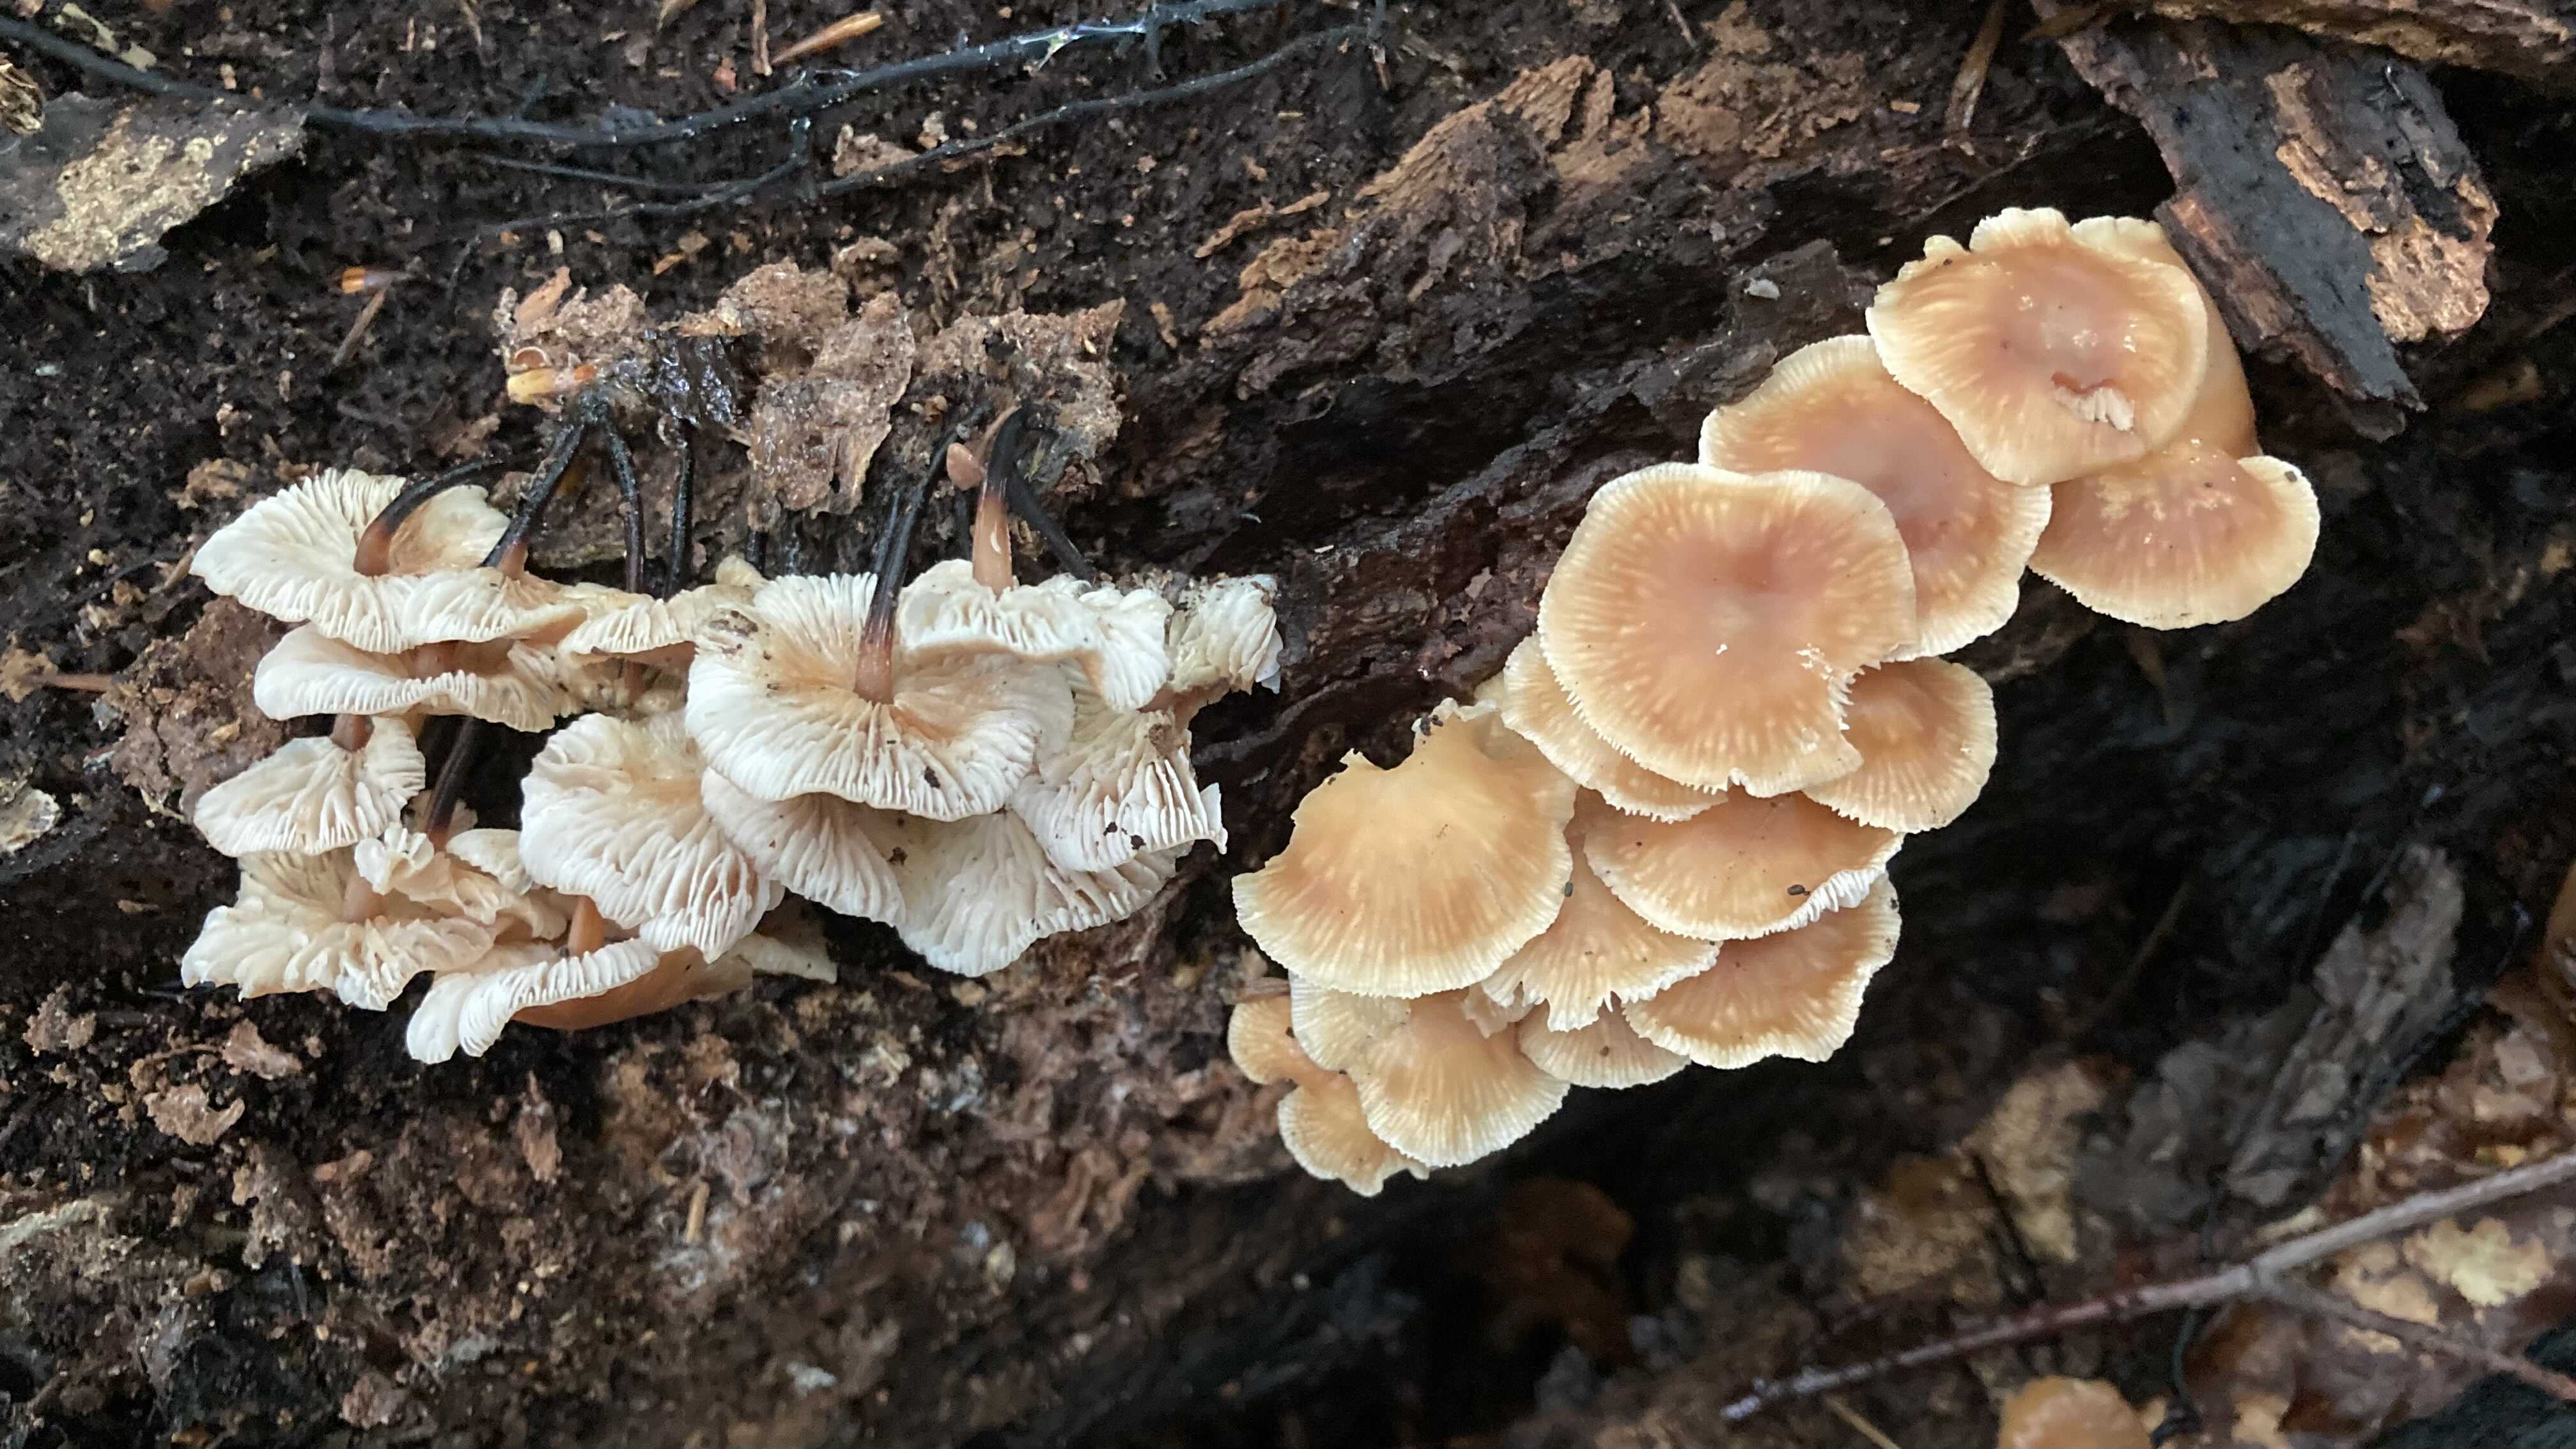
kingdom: Fungi
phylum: Basidiomycota
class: Agaricomycetes
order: Agaricales
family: Omphalotaceae
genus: Gymnopus
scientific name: Gymnopus brassicolens
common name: kål-fladhat
